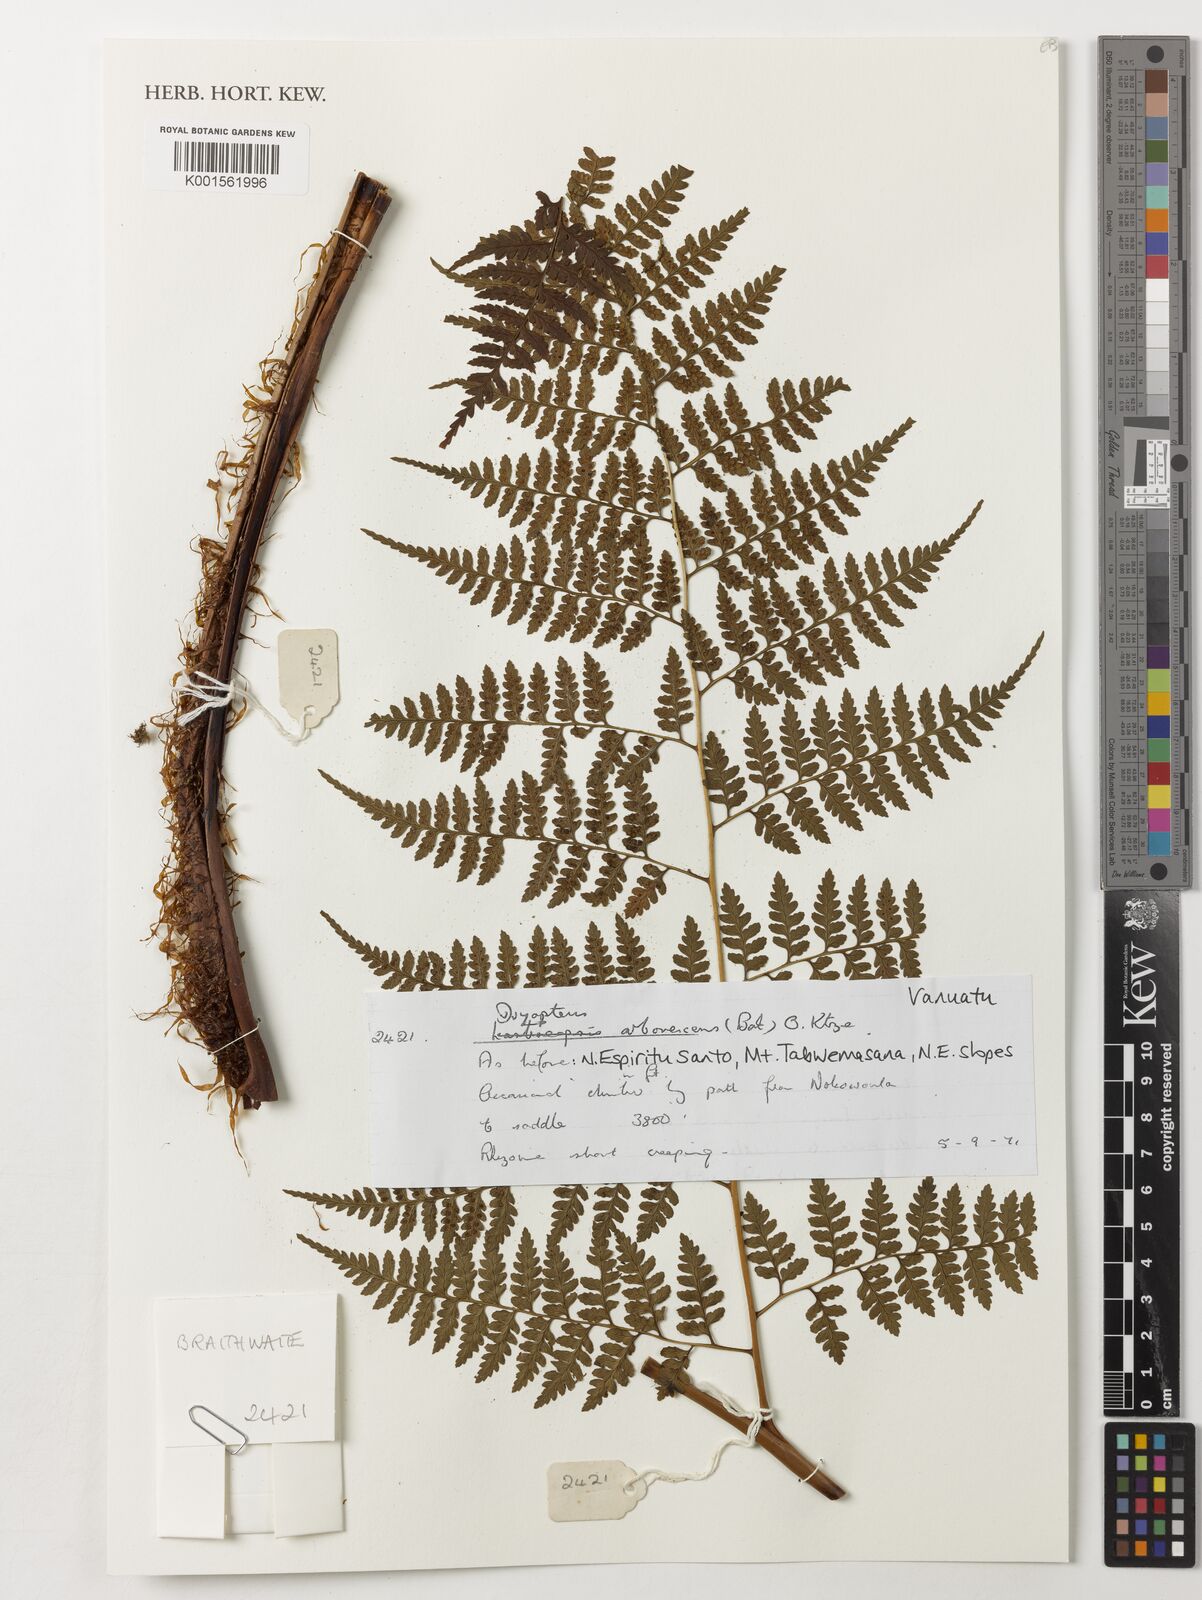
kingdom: Plantae
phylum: Tracheophyta
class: Polypodiopsida
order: Polypodiales
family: Dryopteridaceae
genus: Dryopteris
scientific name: Dryopteris arborescens
